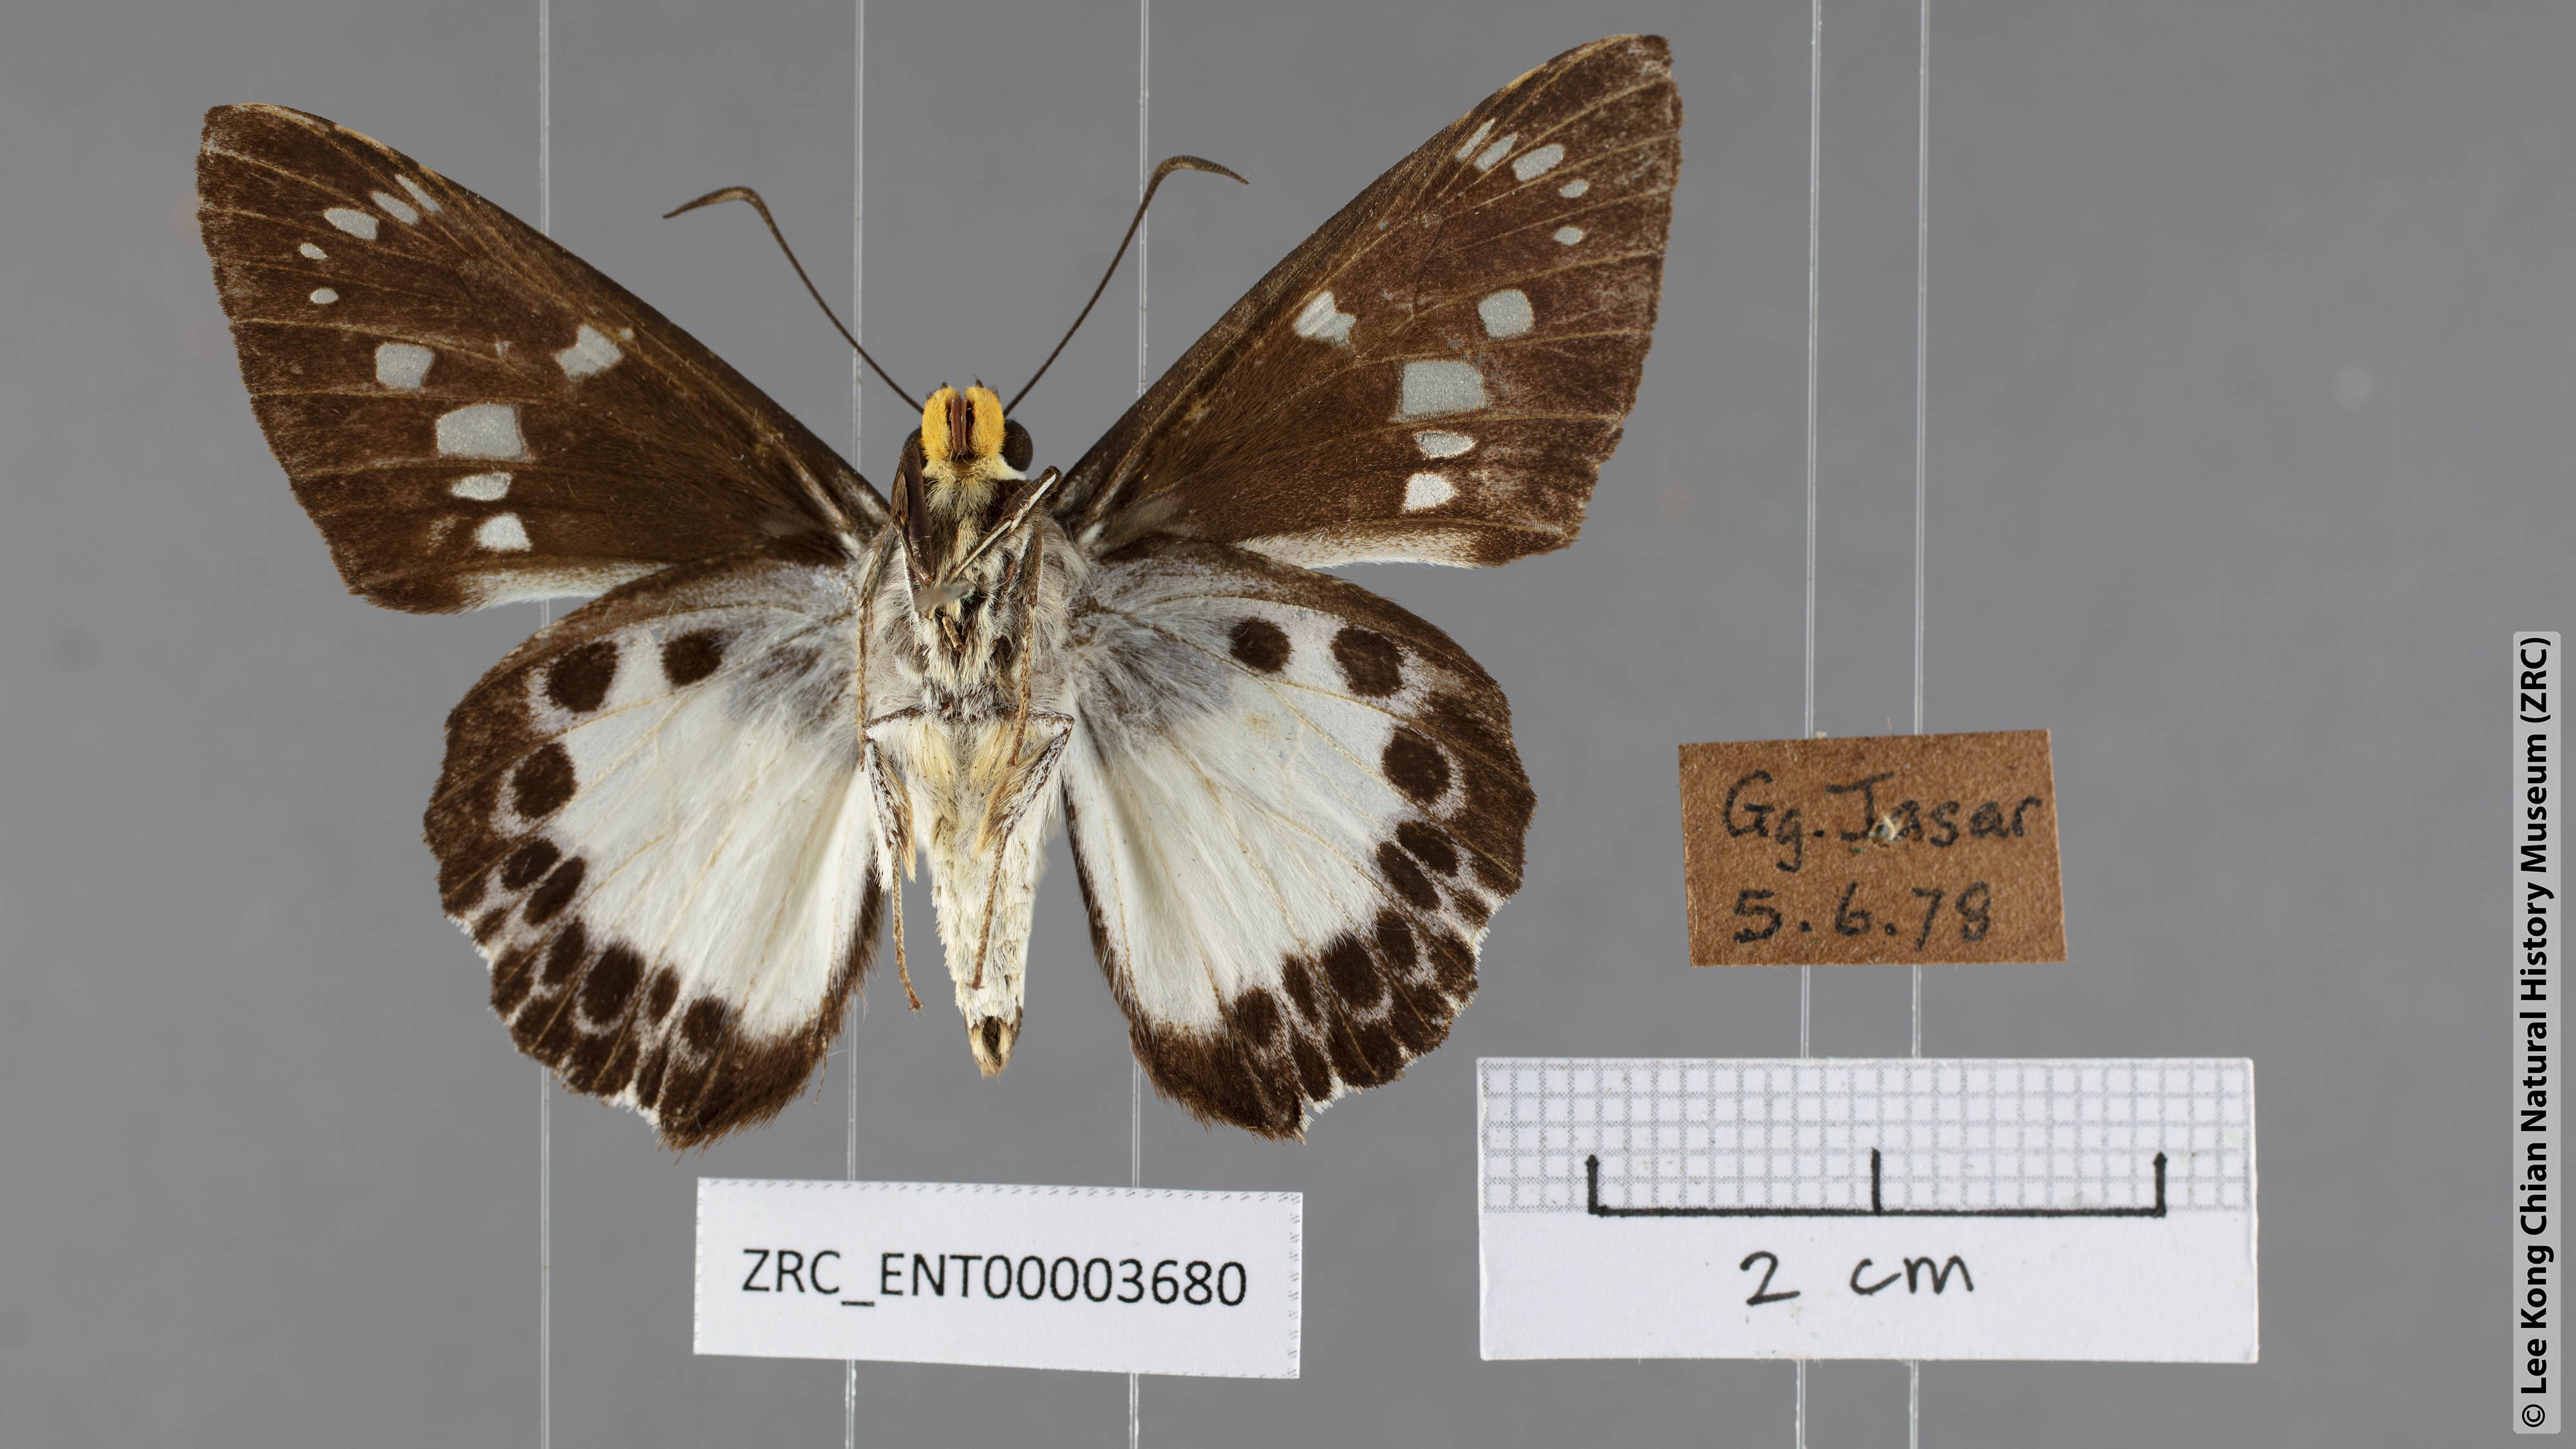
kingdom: Animalia
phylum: Arthropoda
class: Insecta
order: Lepidoptera
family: Hesperiidae
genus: Satarupa
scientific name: Satarupa gopala
